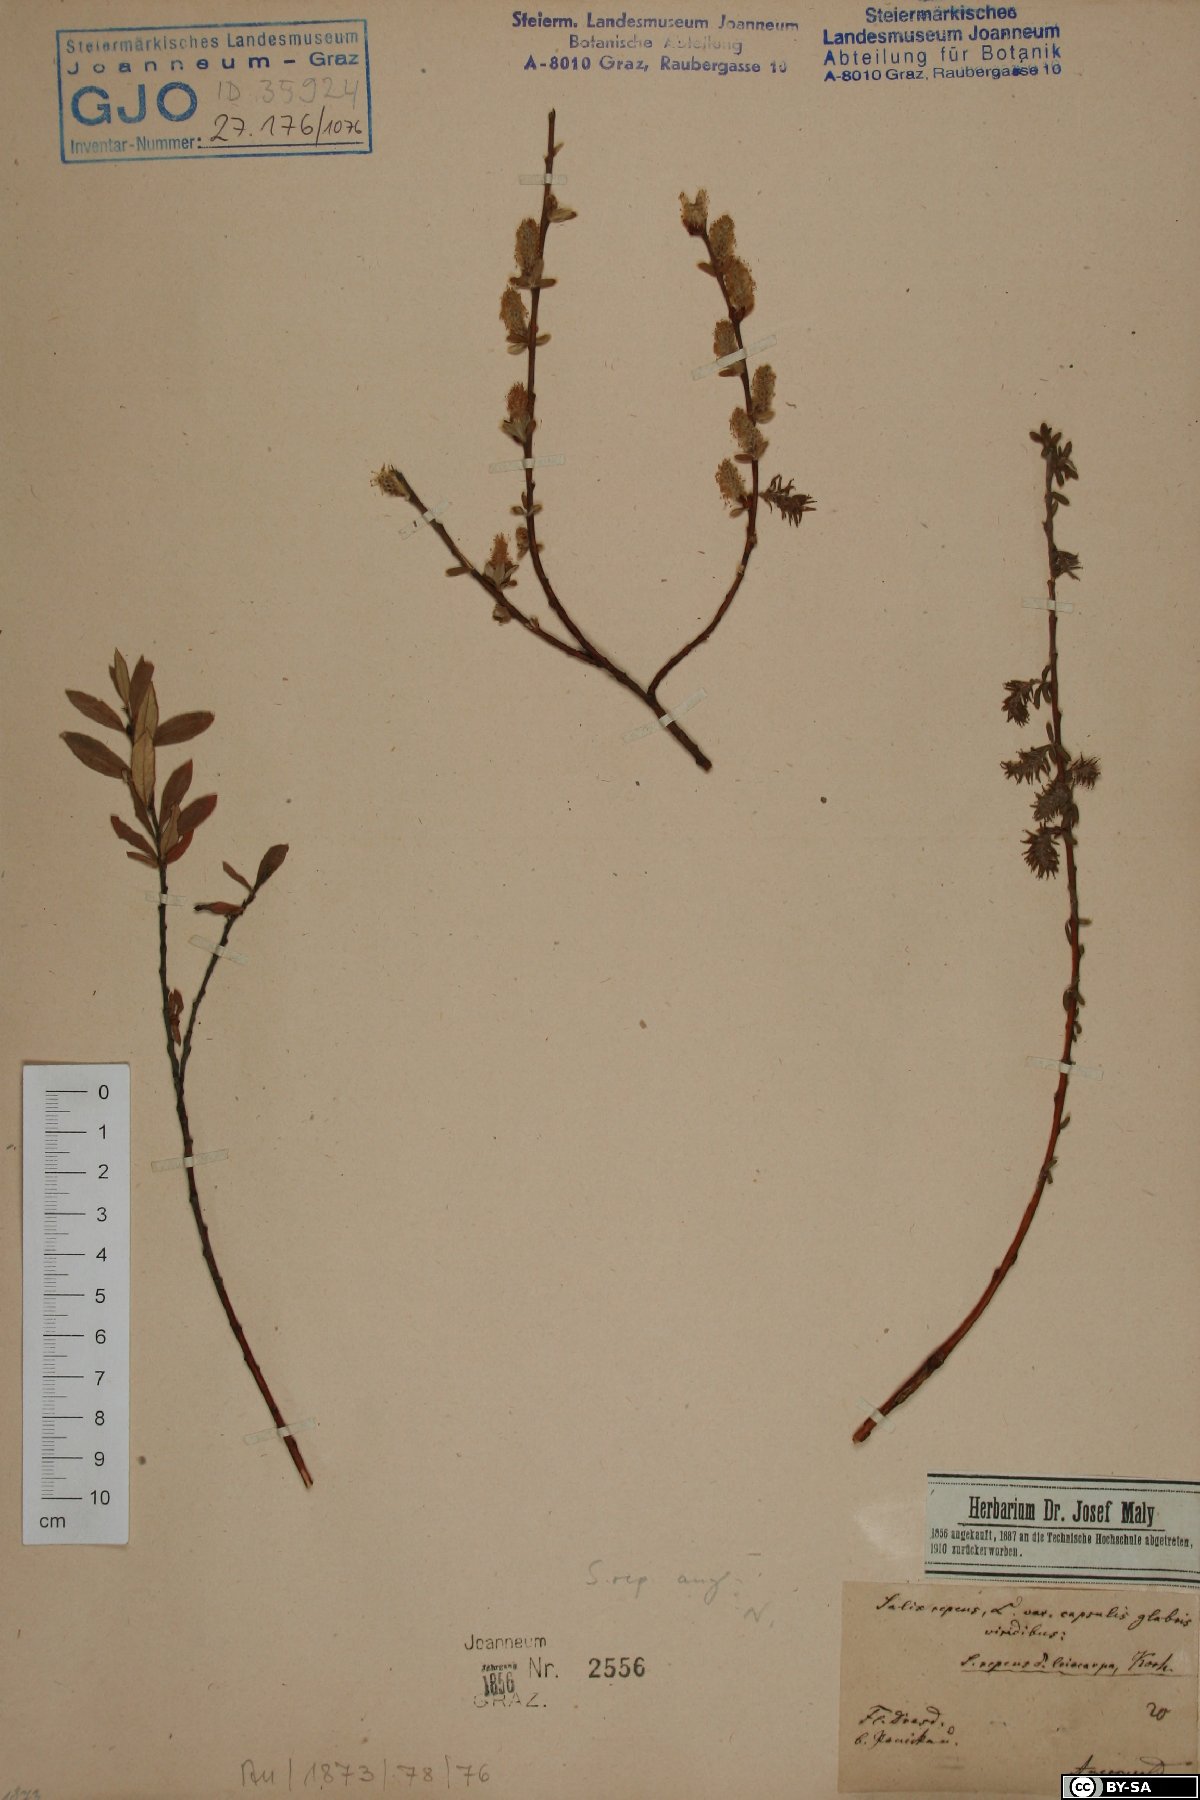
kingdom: Plantae
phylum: Tracheophyta
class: Magnoliopsida
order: Malpighiales
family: Salicaceae
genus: Salix
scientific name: Salix rosmarinifolia
